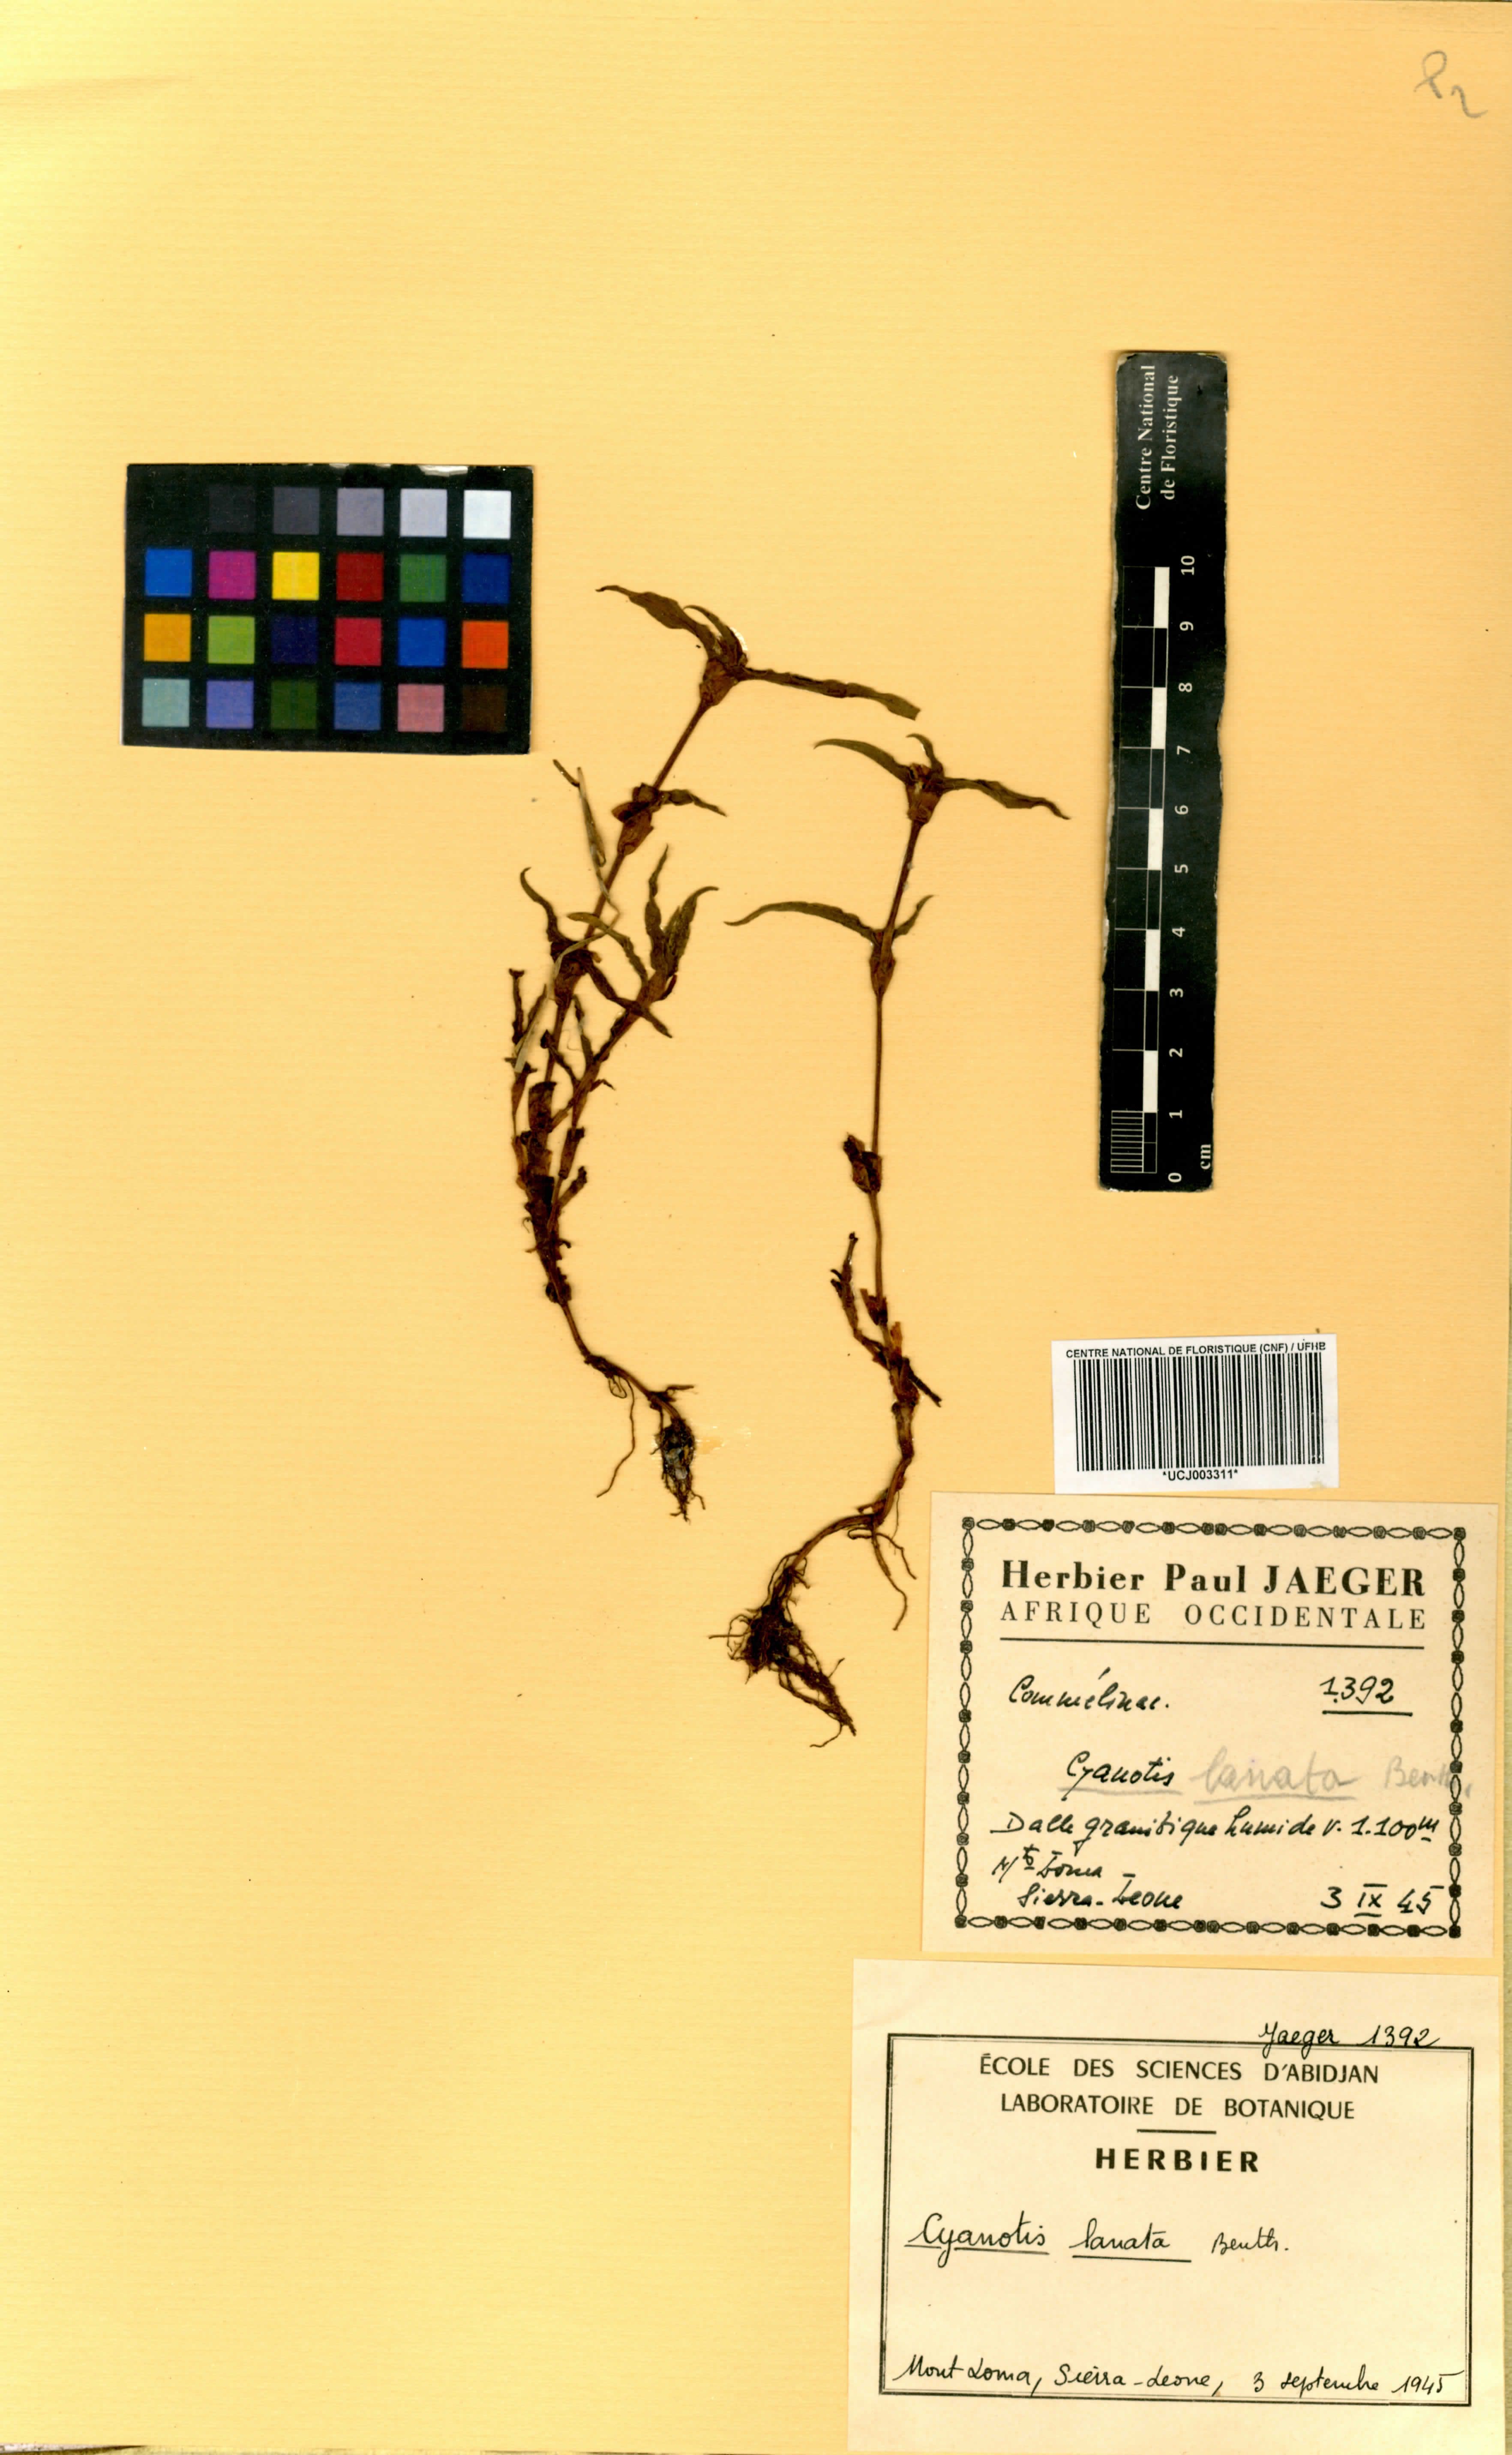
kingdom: Plantae
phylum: Tracheophyta
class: Liliopsida
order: Commelinales
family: Commelinaceae
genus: Cyanotis
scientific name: Cyanotis lanata
